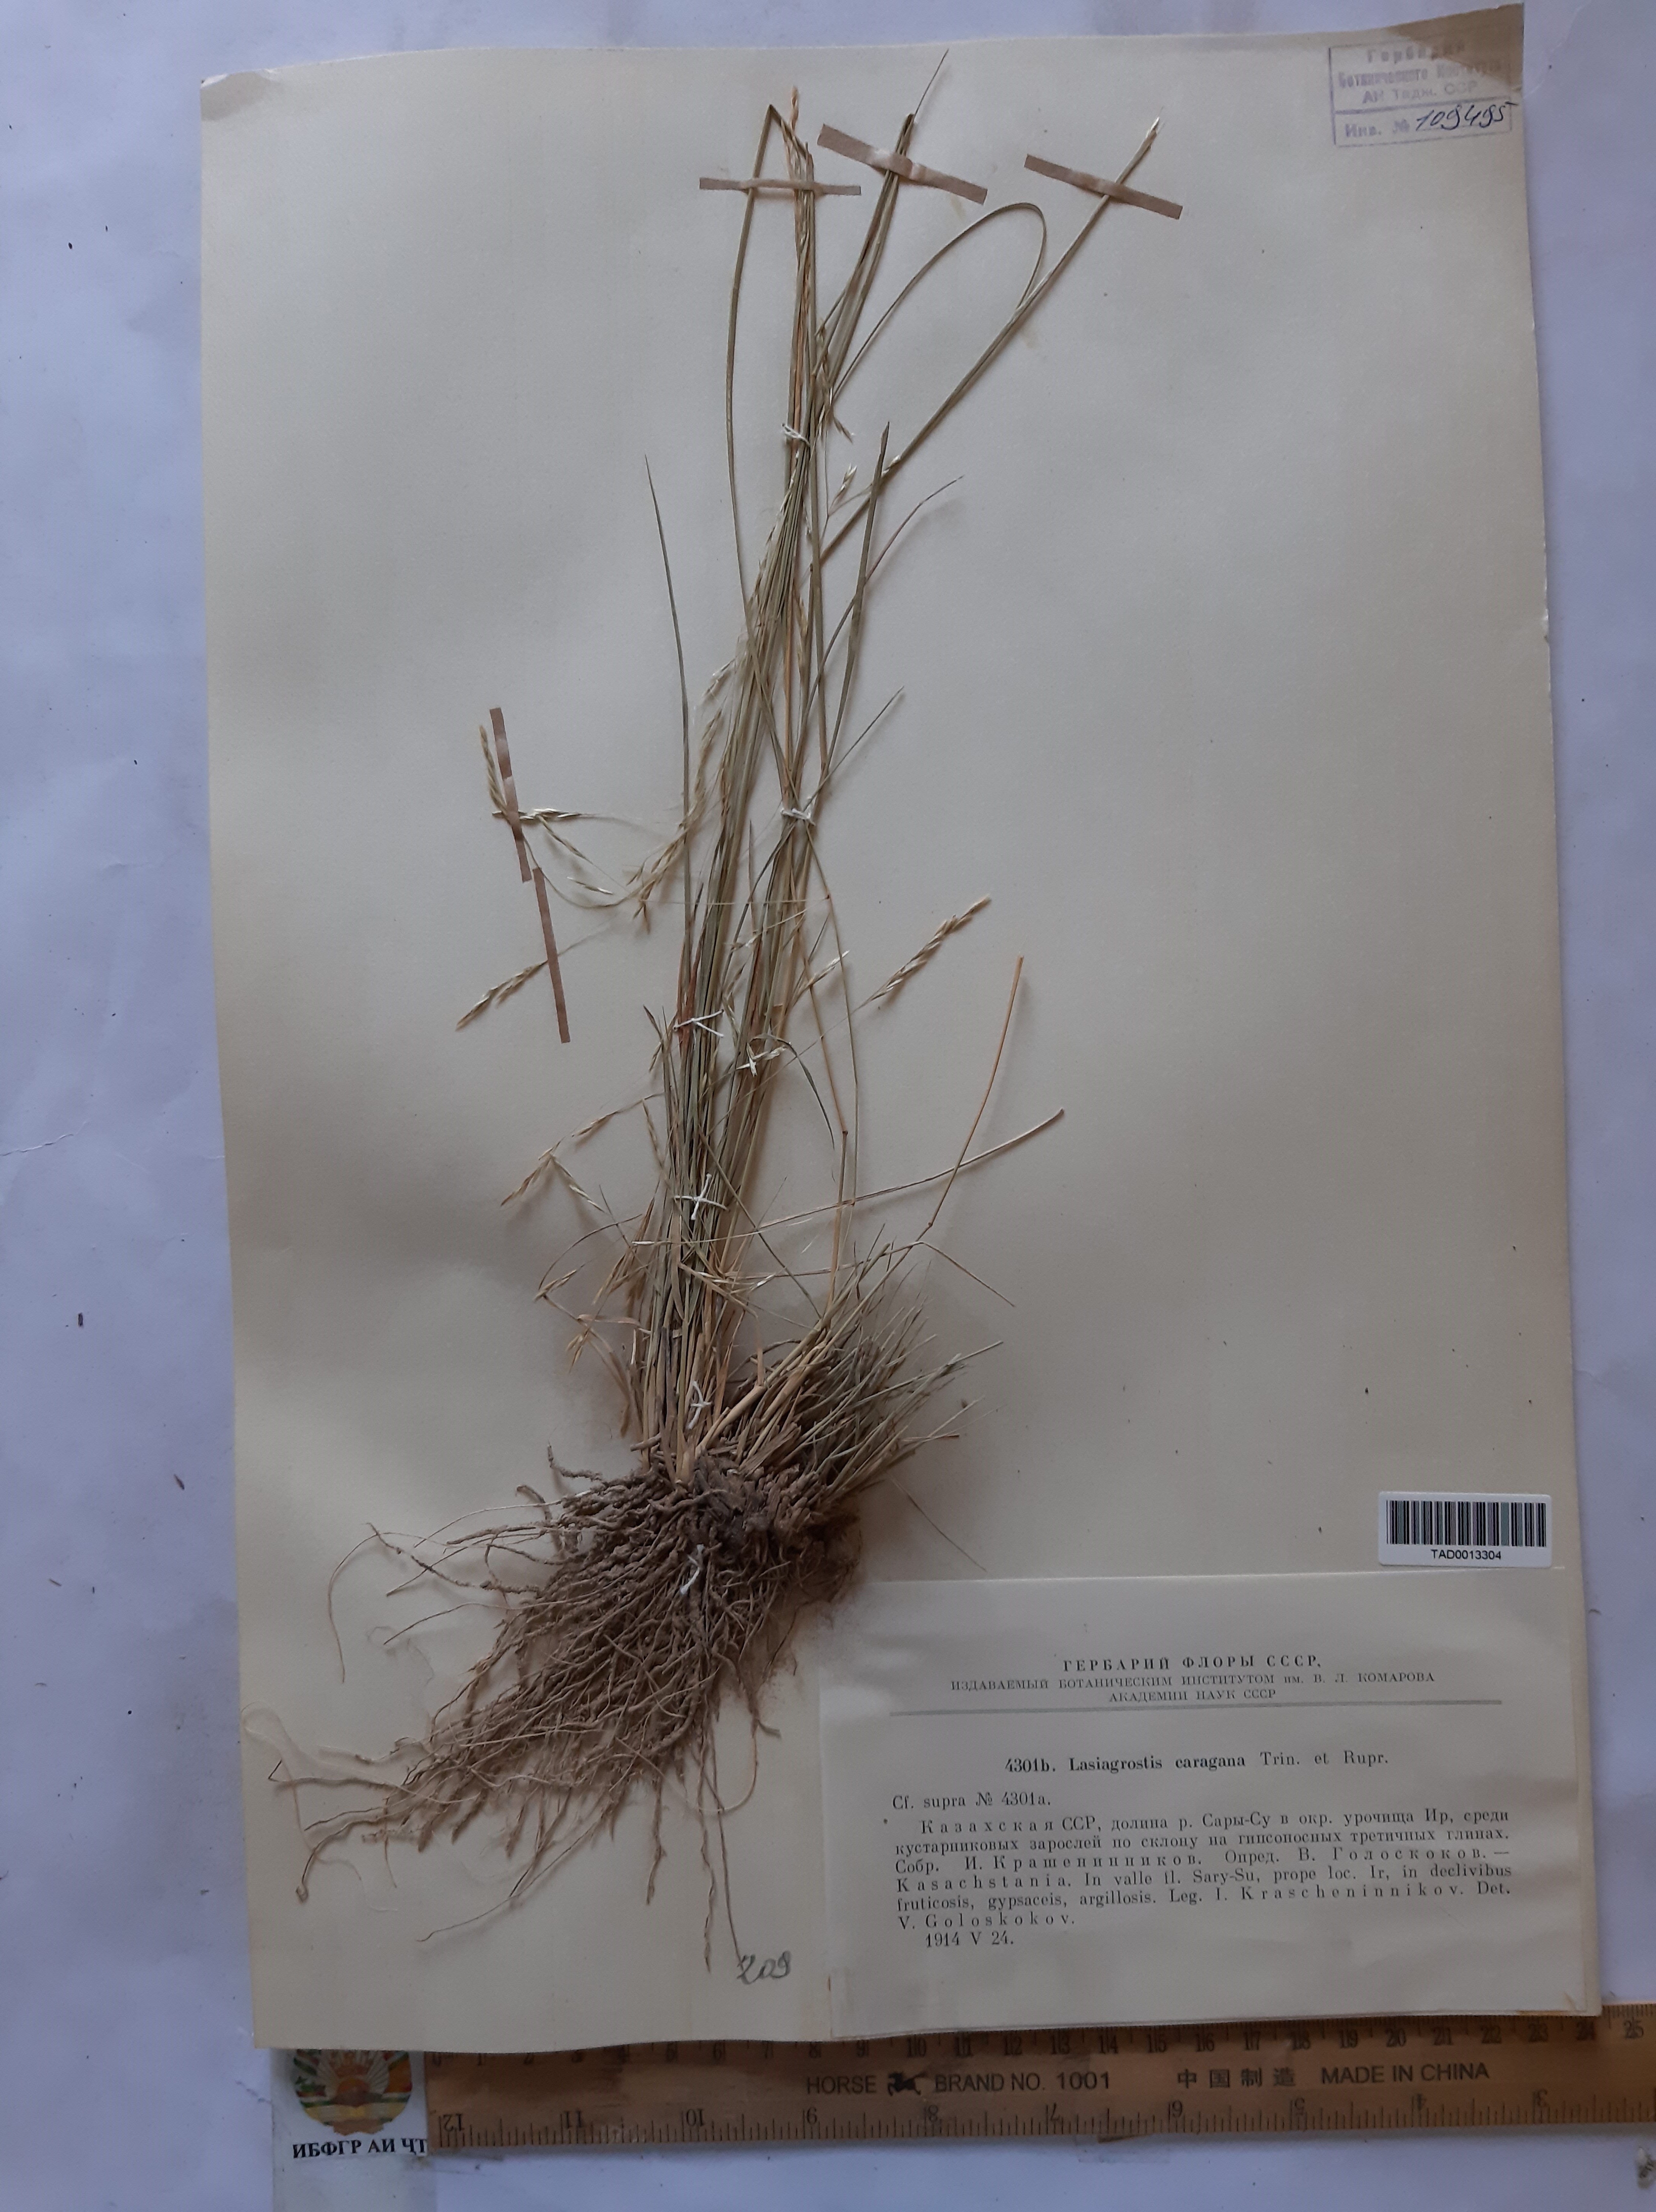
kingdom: Plantae
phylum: Tracheophyta
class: Liliopsida
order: Poales
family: Poaceae
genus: Stipa
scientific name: Stipa conferta
